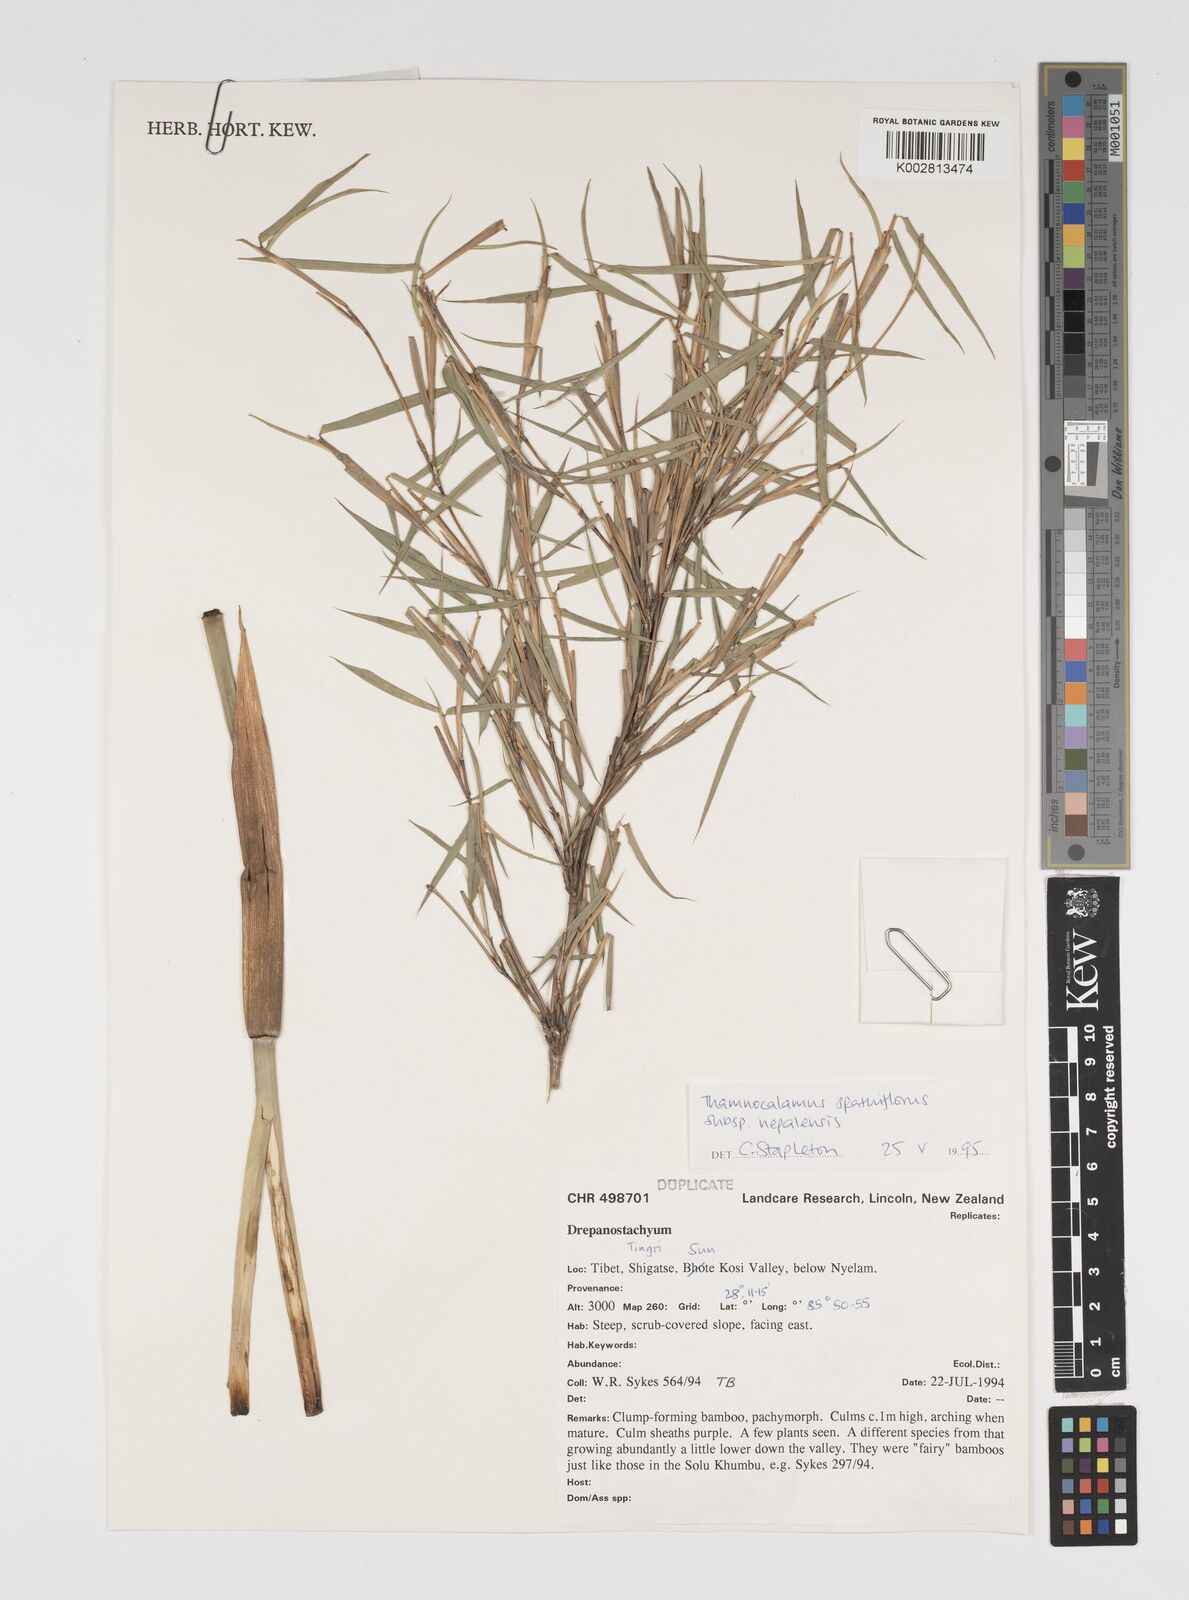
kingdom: Plantae
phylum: Tracheophyta
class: Liliopsida
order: Poales
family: Poaceae
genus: Thamnocalamus
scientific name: Thamnocalamus spathiflorus
